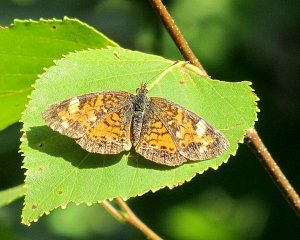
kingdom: Animalia
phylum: Arthropoda
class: Insecta
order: Lepidoptera
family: Nymphalidae
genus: Phyciodes
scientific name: Phyciodes tharos
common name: Pearl Crescent
